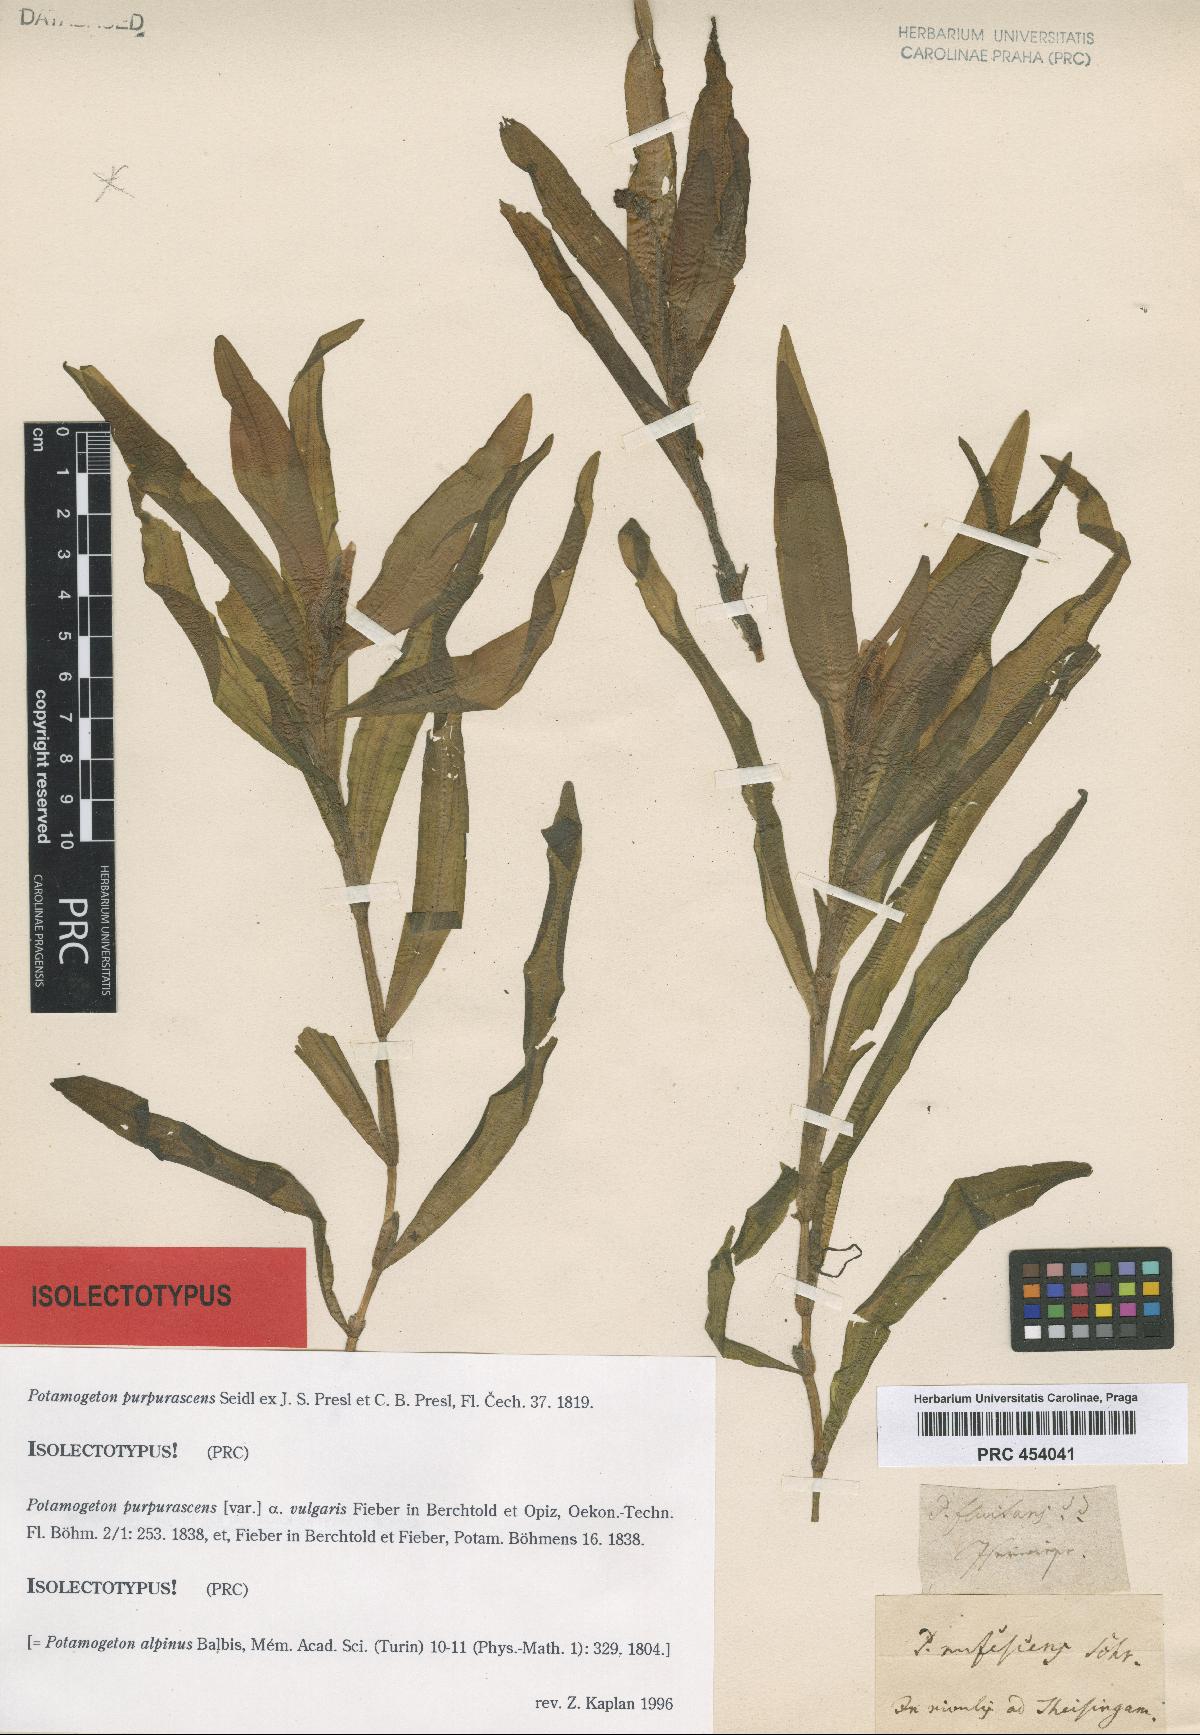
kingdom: Plantae
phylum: Tracheophyta
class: Liliopsida
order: Alismatales
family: Potamogetonaceae
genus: Potamogeton
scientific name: Potamogeton alpinus
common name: Red pondweed
